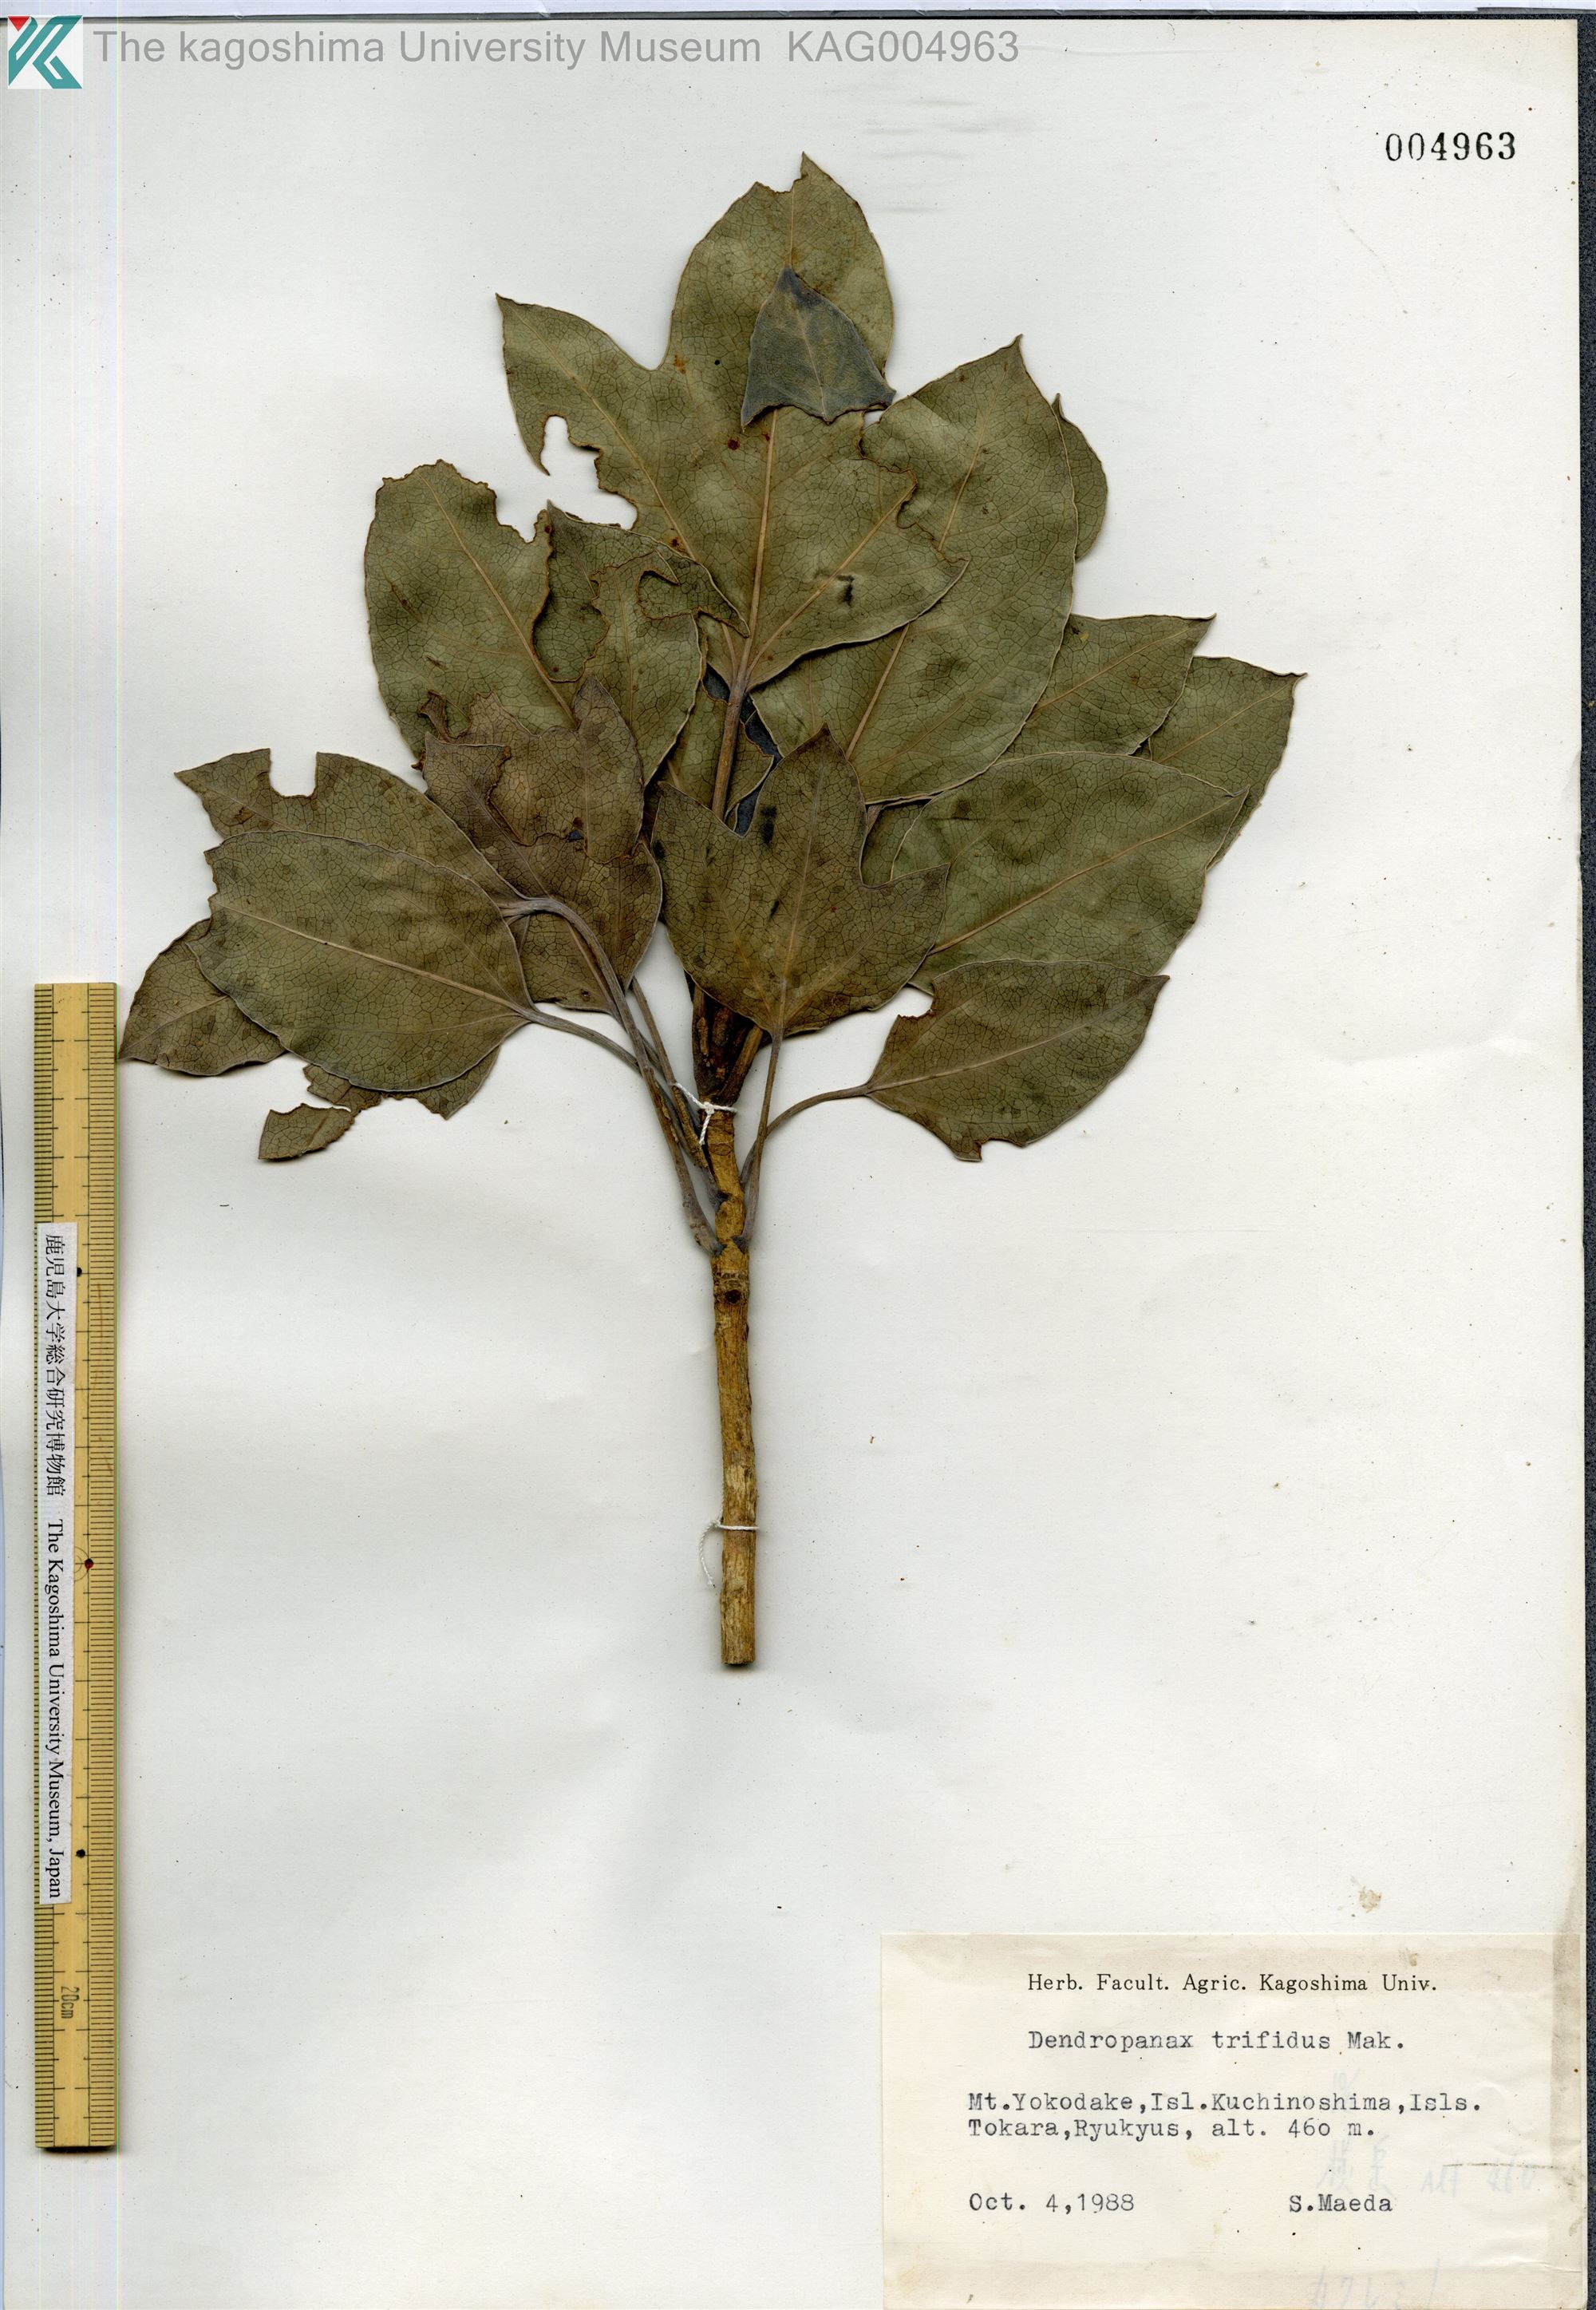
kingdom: Plantae
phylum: Tracheophyta
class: Magnoliopsida
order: Apiales
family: Araliaceae
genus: Dendropanax
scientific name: Dendropanax trifidus
